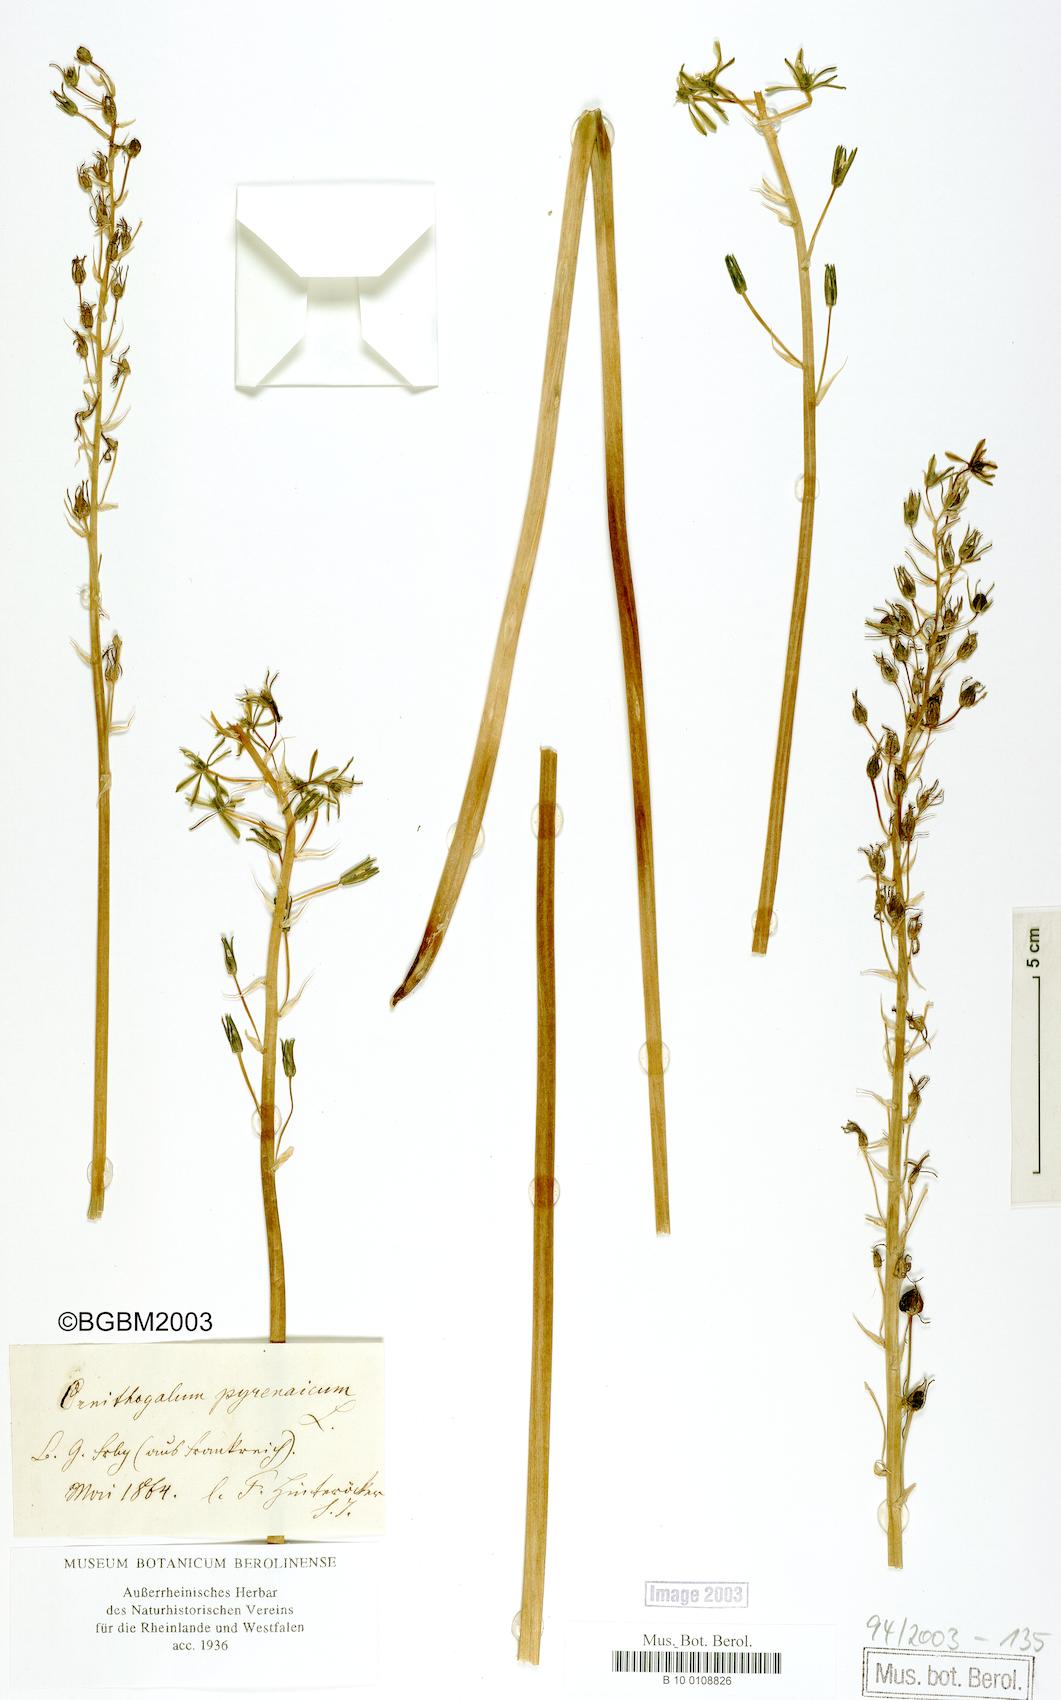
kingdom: Plantae
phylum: Tracheophyta
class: Liliopsida
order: Asparagales
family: Asparagaceae
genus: Ornithogalum
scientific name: Ornithogalum pyrenaicum
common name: Spiked star-of-bethlehem
